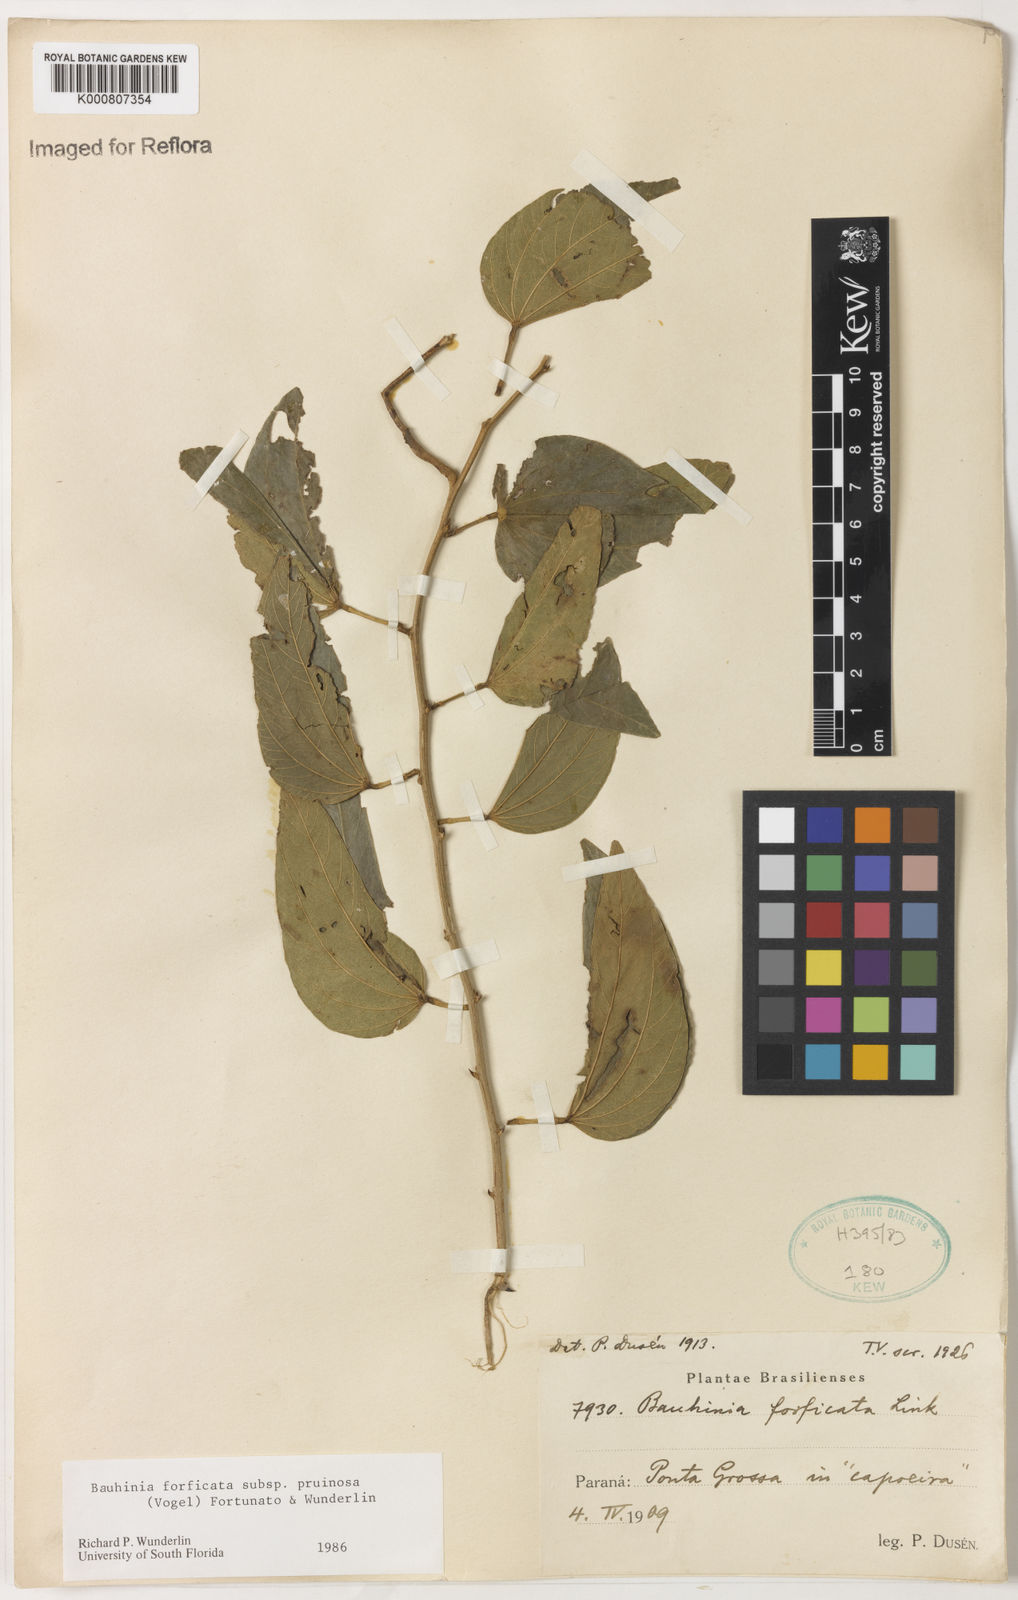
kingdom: Plantae
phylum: Tracheophyta
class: Magnoliopsida
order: Fabales
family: Fabaceae
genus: Bauhinia
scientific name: Bauhinia forficata
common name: Orchid tree
